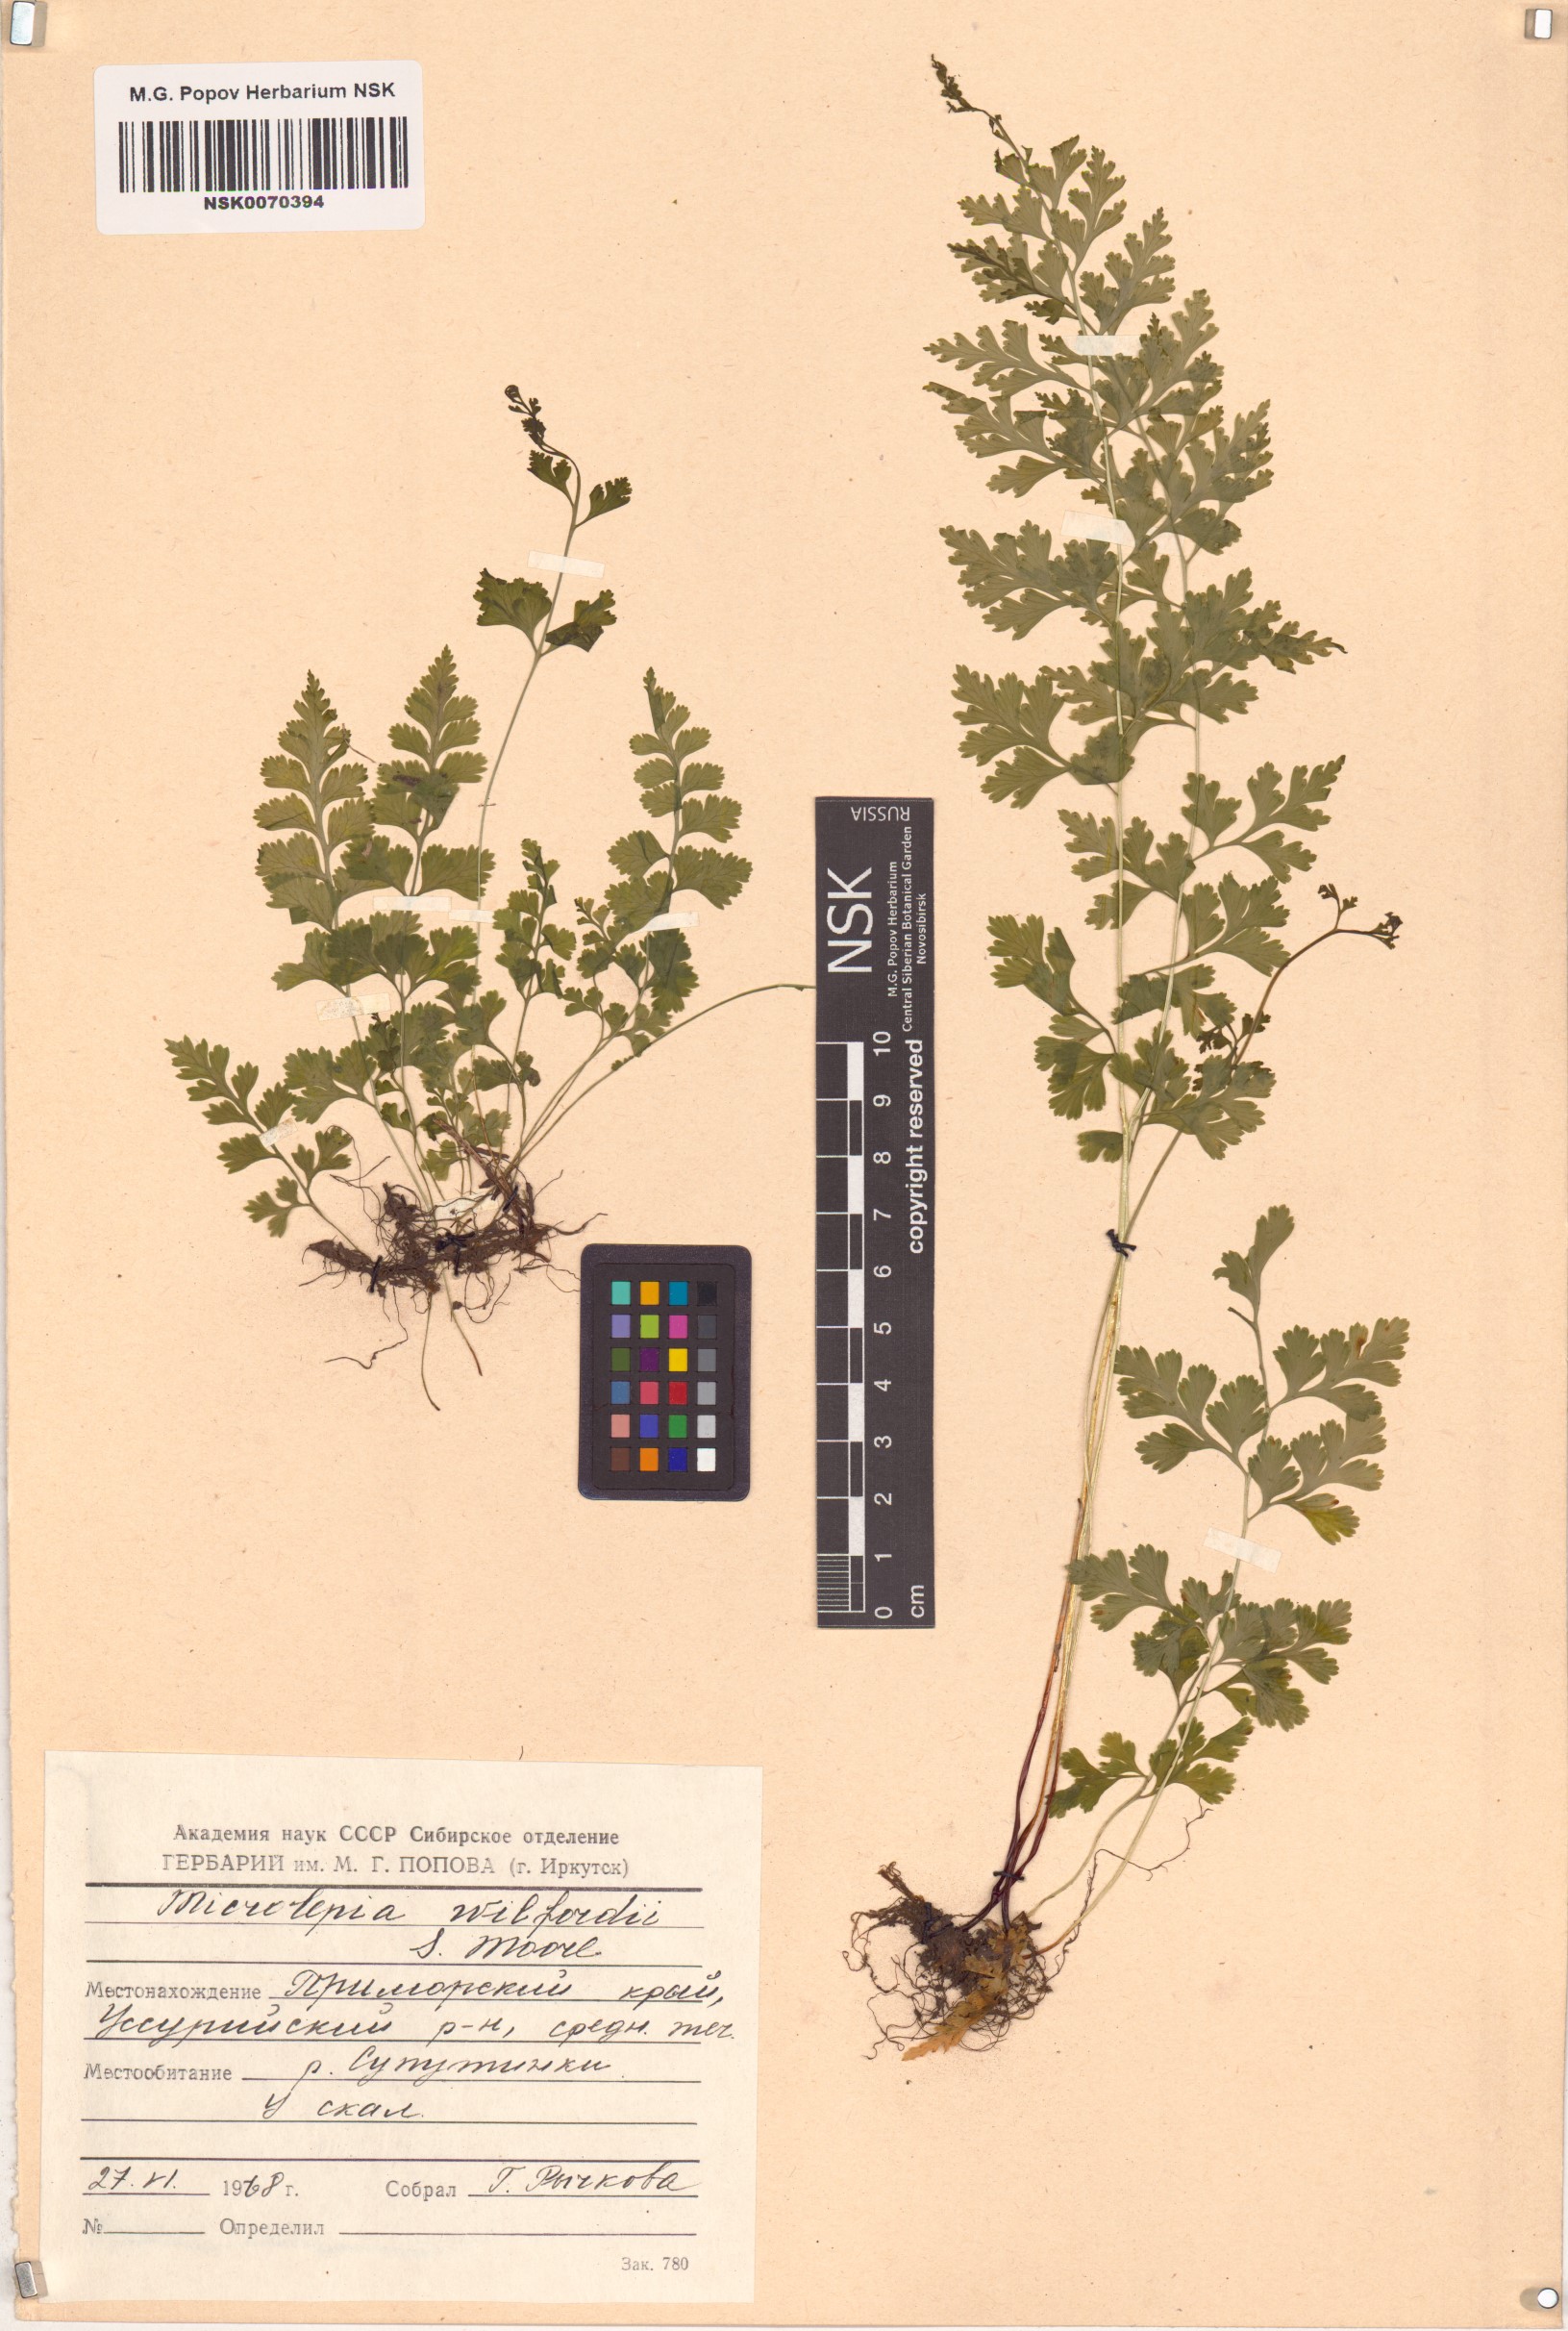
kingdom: Plantae
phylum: Tracheophyta
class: Polypodiopsida
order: Polypodiales
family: Dennstaedtiaceae
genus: Sitobolium
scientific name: Sitobolium wilfordii
